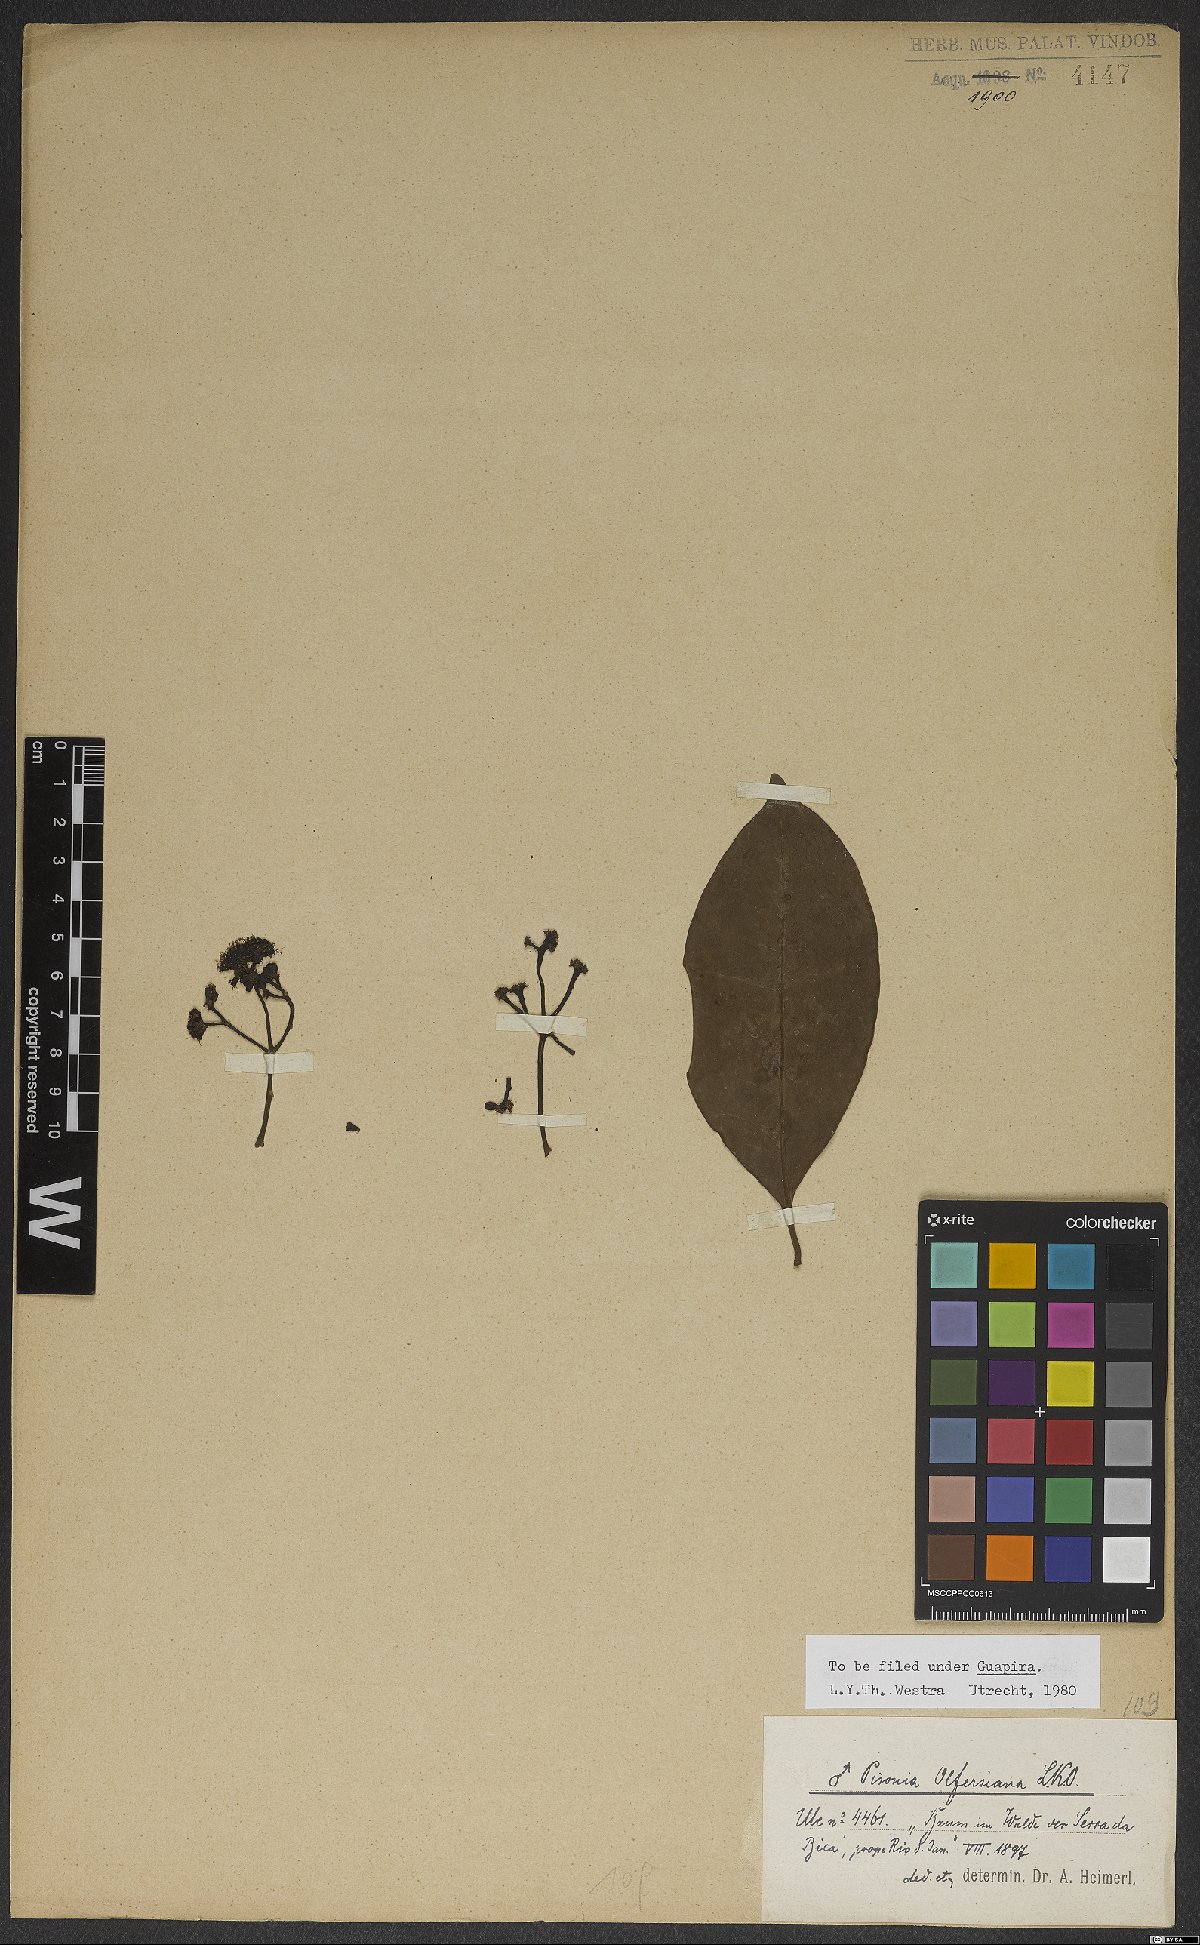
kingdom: Plantae
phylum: Tracheophyta
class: Magnoliopsida
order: Caryophyllales
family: Nyctaginaceae
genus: Guapira
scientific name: Guapira opposita
